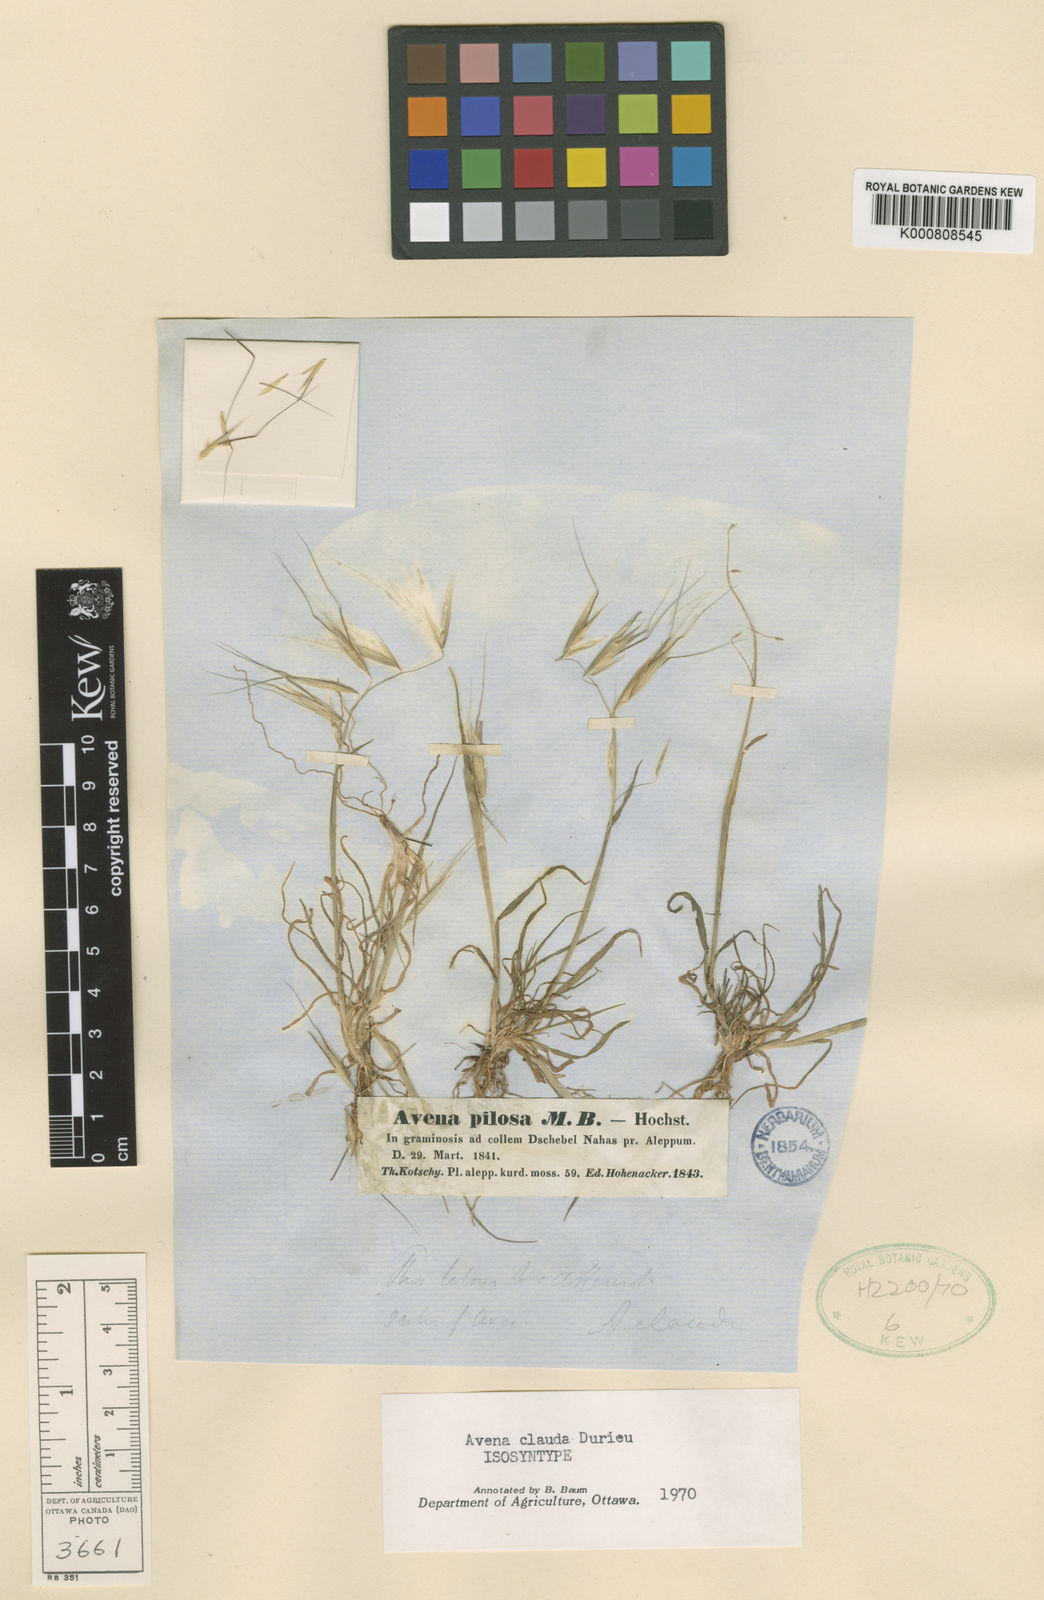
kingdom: Plantae
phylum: Tracheophyta
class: Liliopsida
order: Poales
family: Poaceae
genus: Avena
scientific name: Avena clauda
